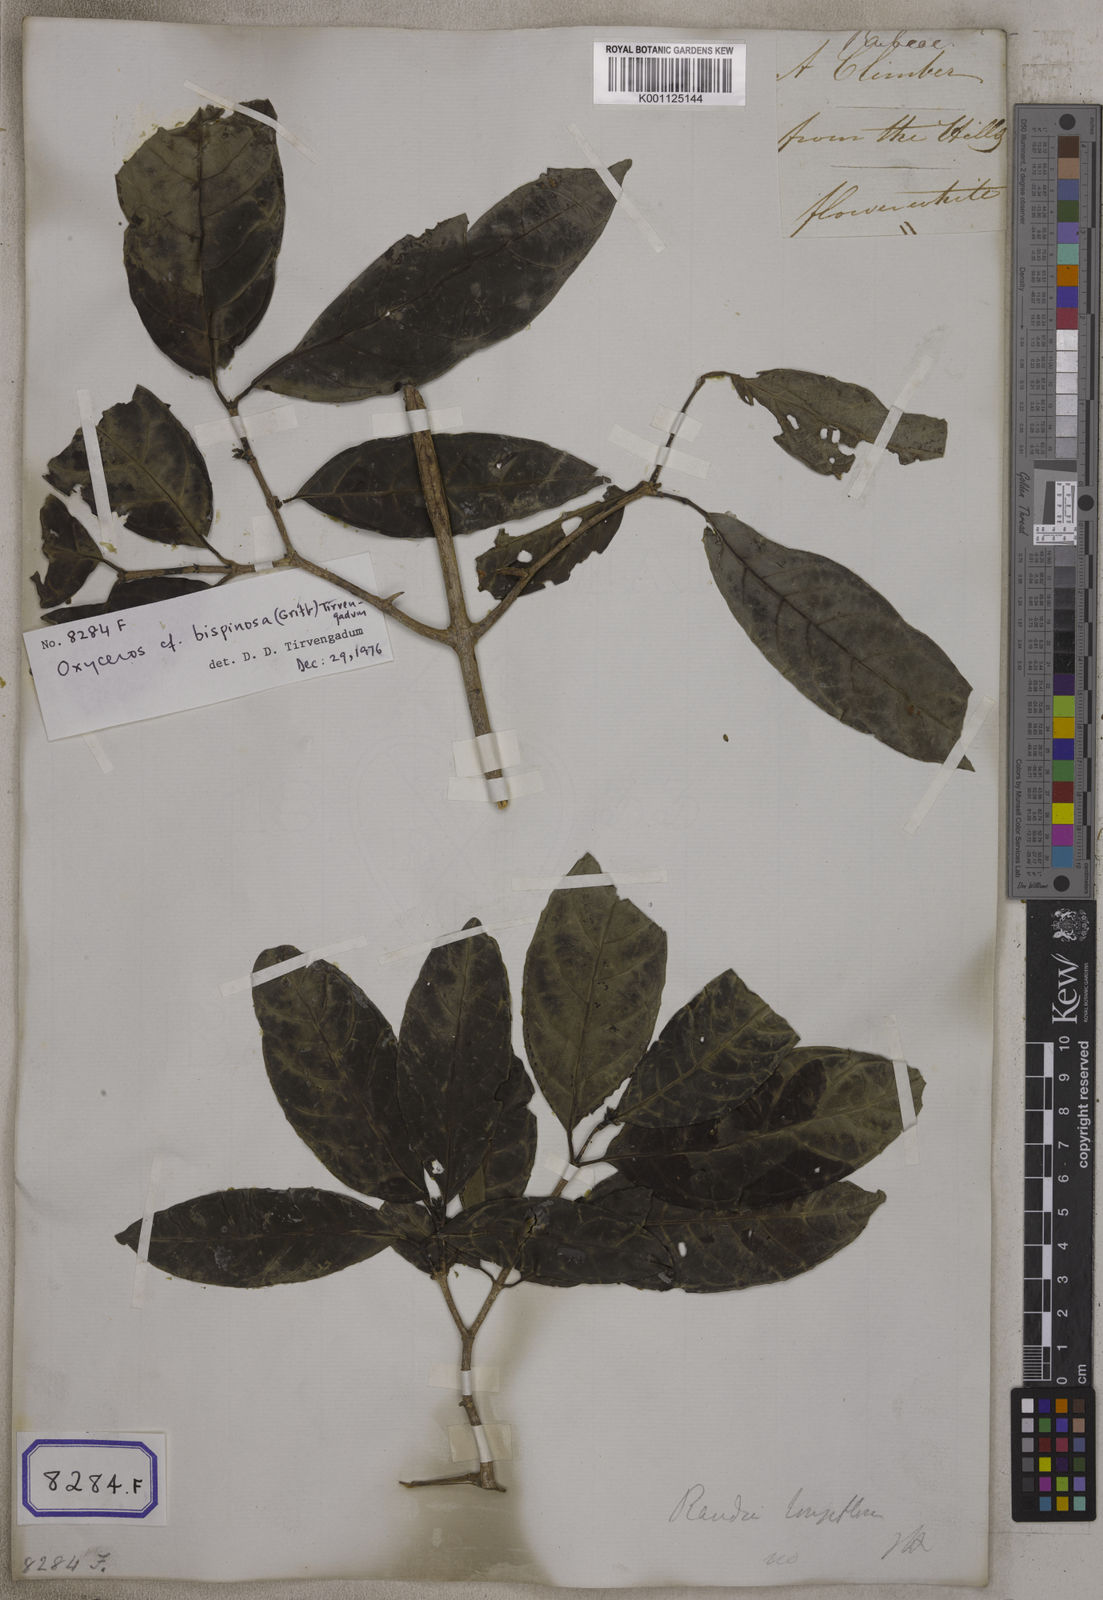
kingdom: Plantae
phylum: Tracheophyta
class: Magnoliopsida
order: Gentianales
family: Rubiaceae
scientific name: Rubiaceae
